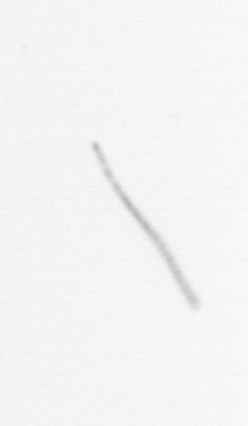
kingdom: Chromista
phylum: Ochrophyta
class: Bacillariophyceae
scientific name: Bacillariophyceae
